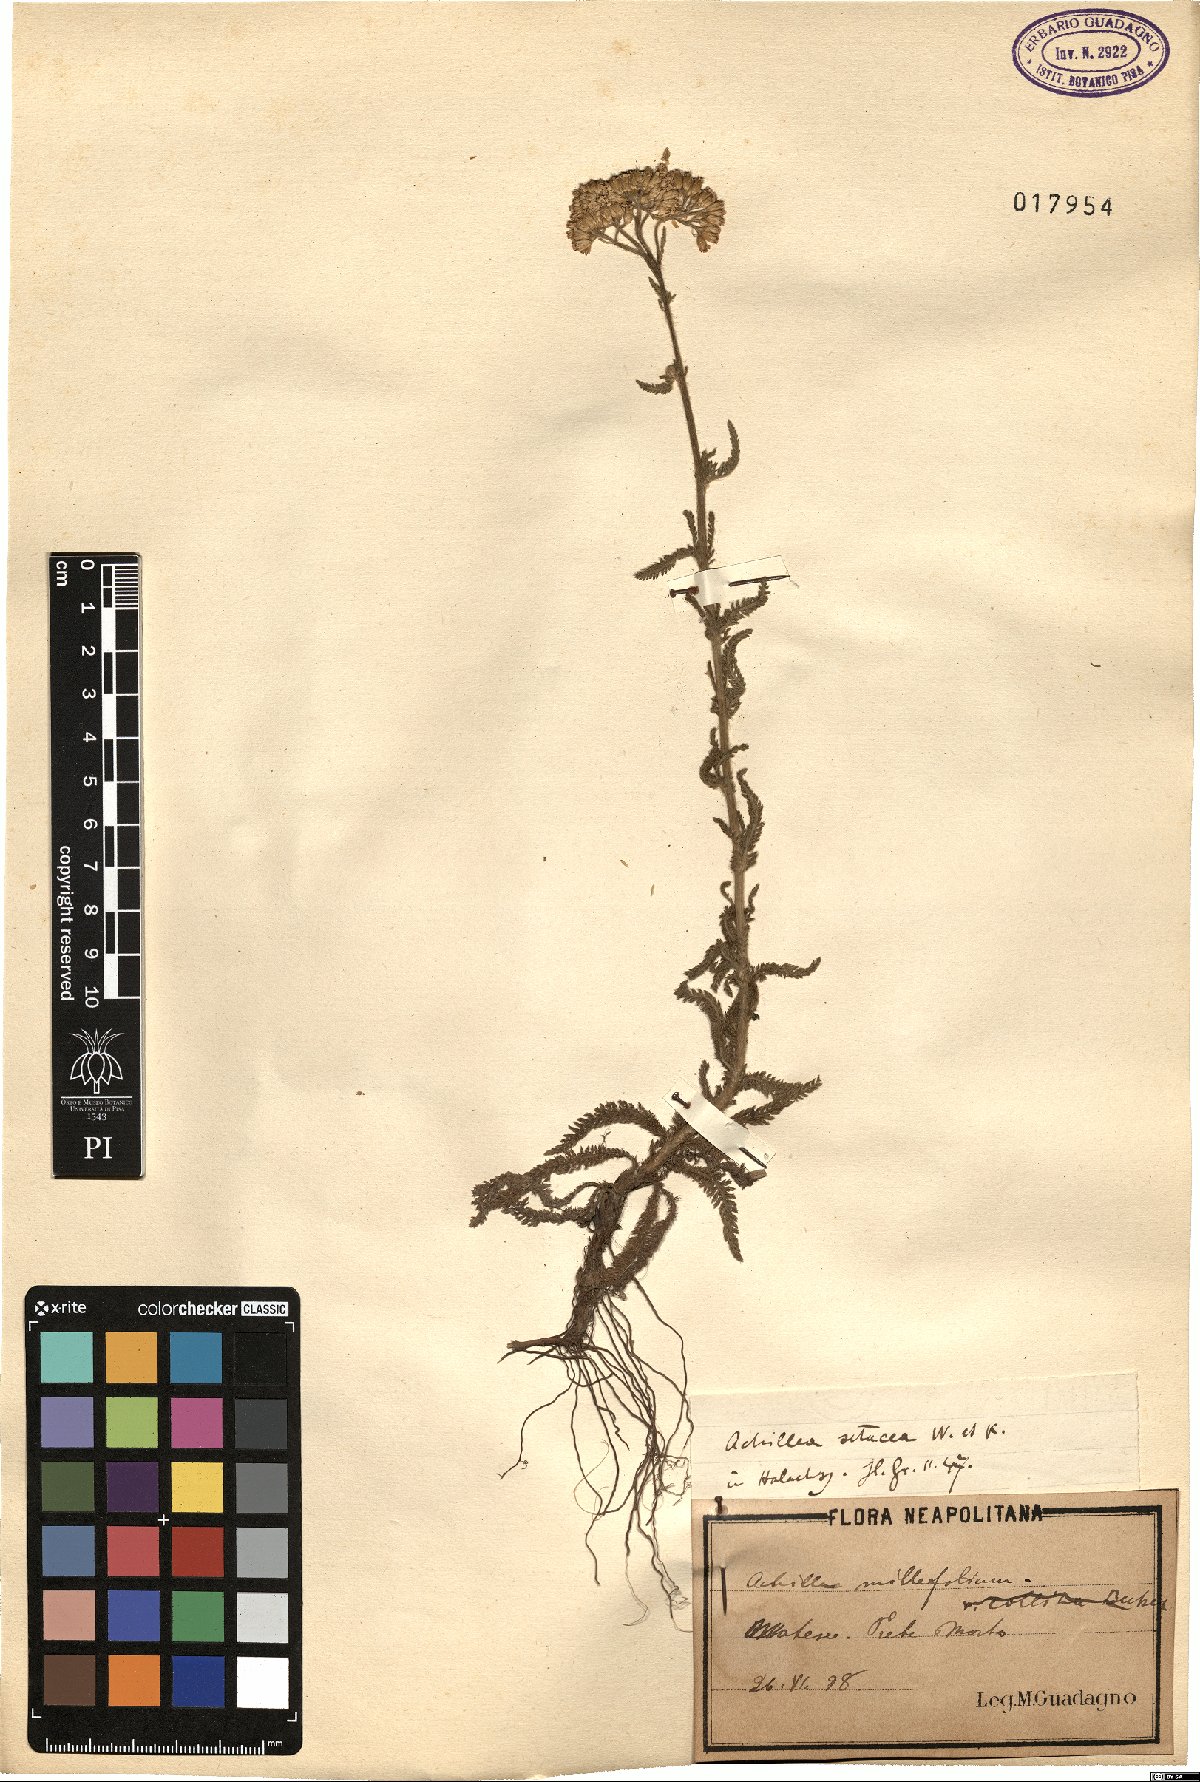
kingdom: Plantae
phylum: Tracheophyta
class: Magnoliopsida
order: Asterales
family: Asteraceae
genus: Achillea
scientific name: Achillea setacea
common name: Bristly yarrow
